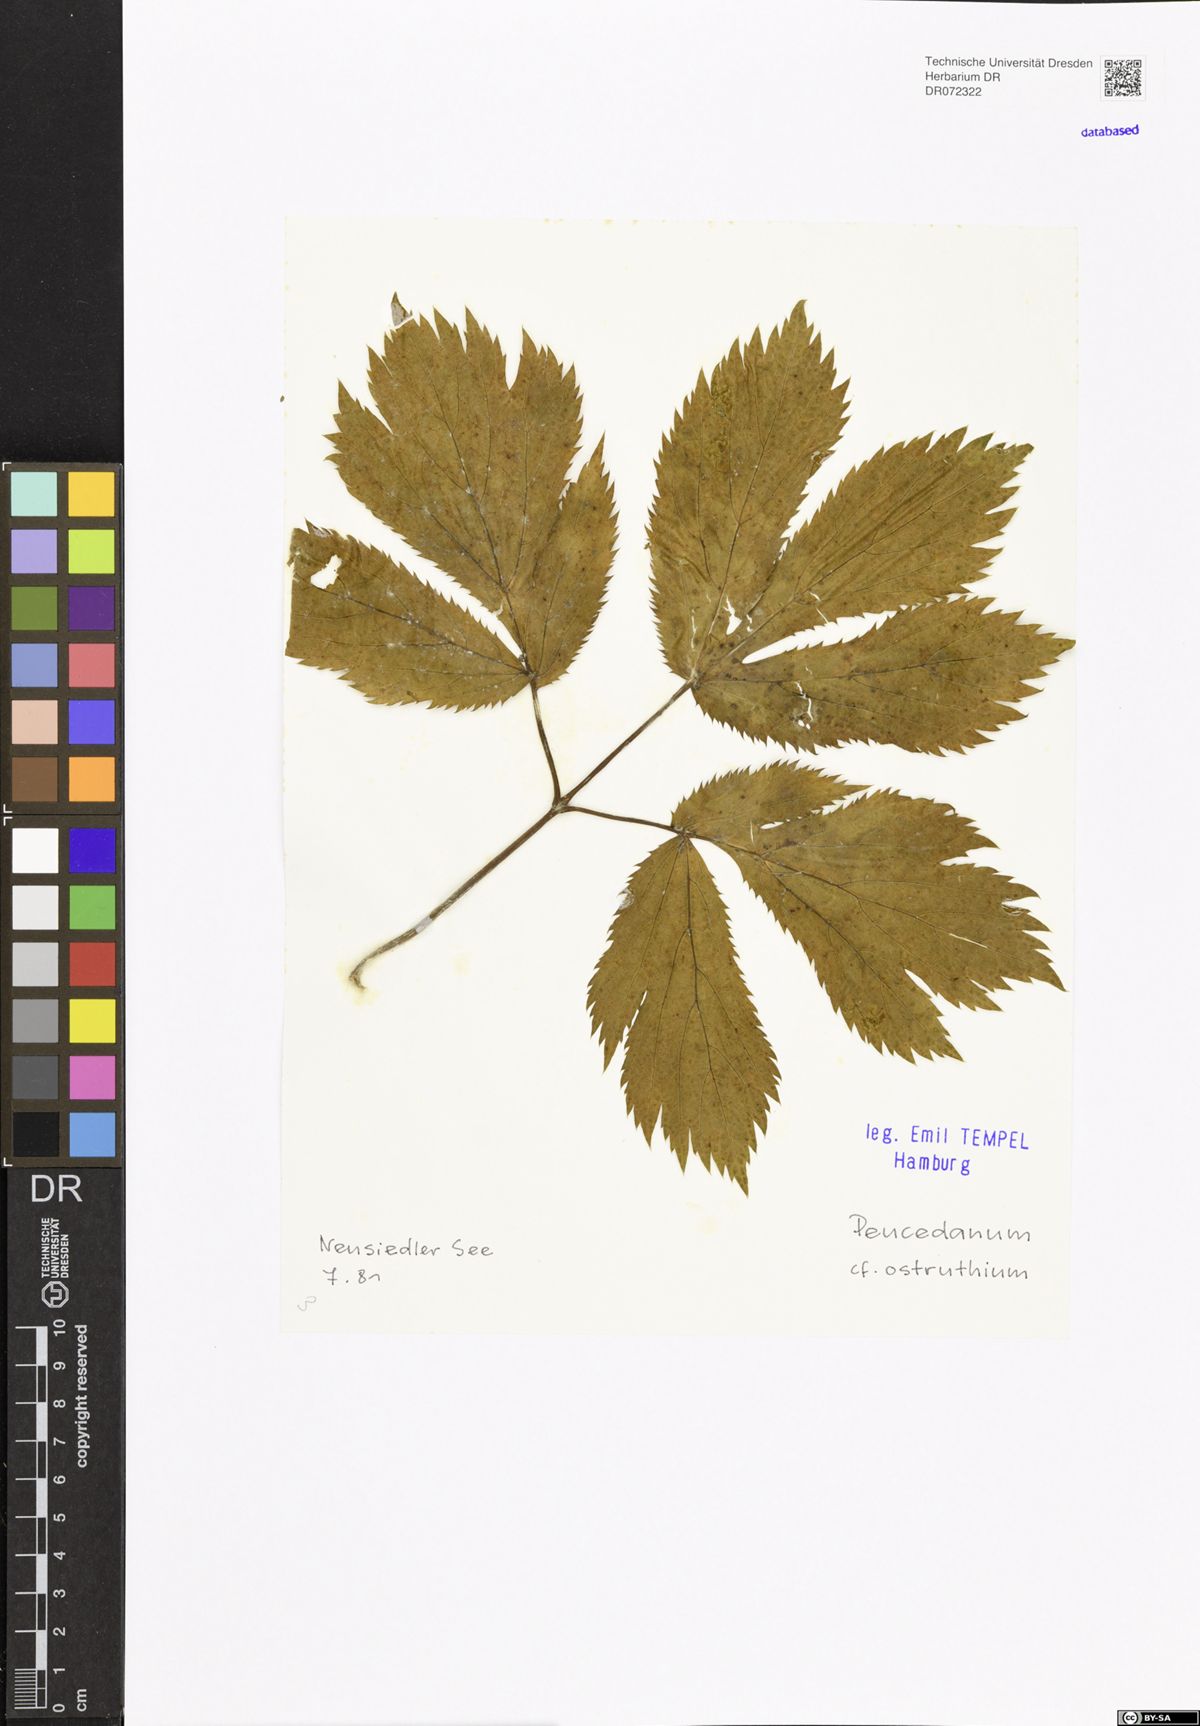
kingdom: Plantae
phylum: Tracheophyta
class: Magnoliopsida
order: Apiales
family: Apiaceae
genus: Imperatoria
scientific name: Imperatoria ostruthium
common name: Masterwort
